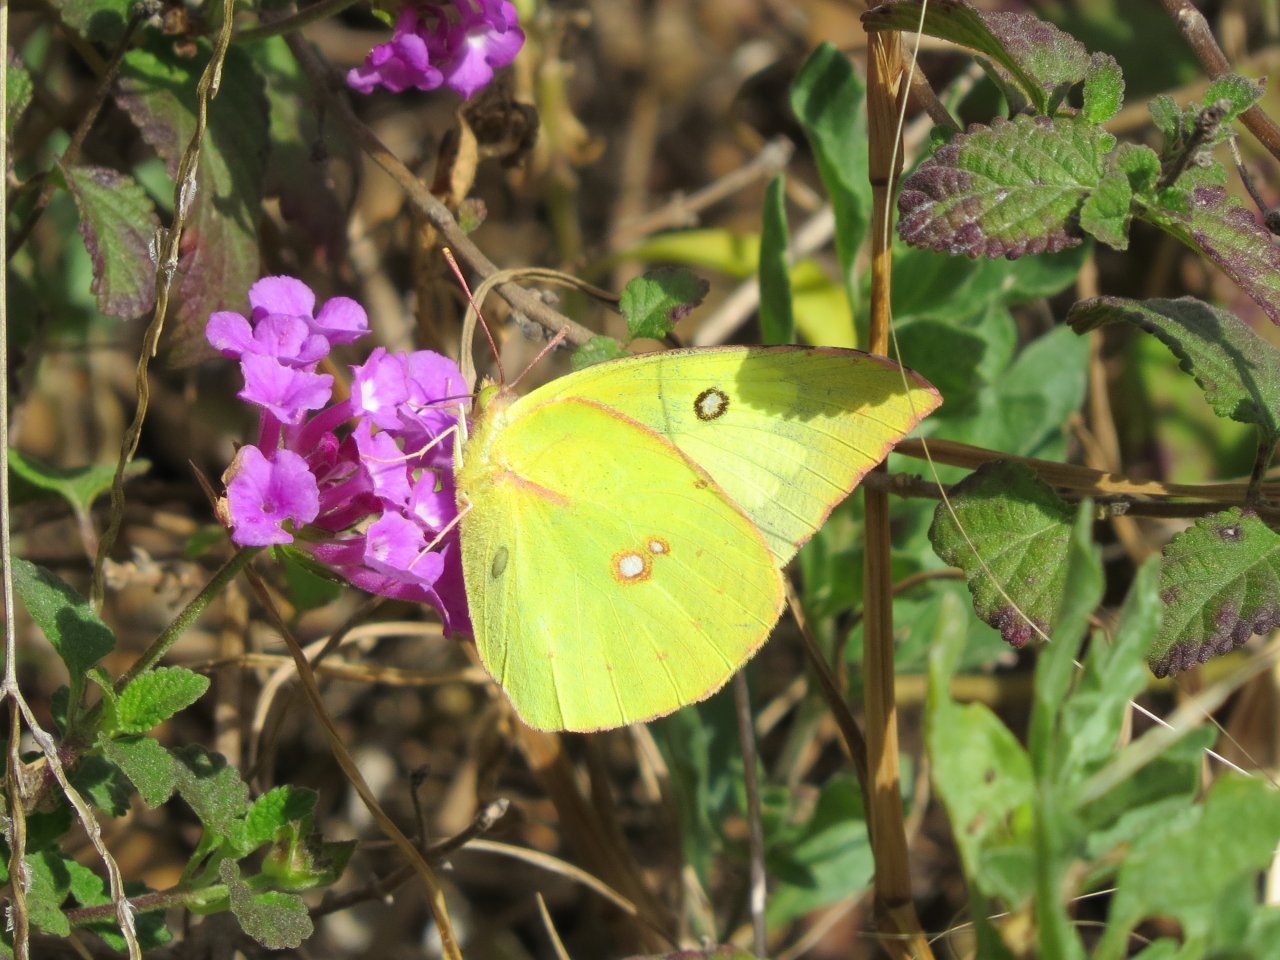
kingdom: Animalia
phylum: Arthropoda
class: Insecta
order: Lepidoptera
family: Pieridae
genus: Zerene
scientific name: Zerene cesonia
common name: Southern Dogface
